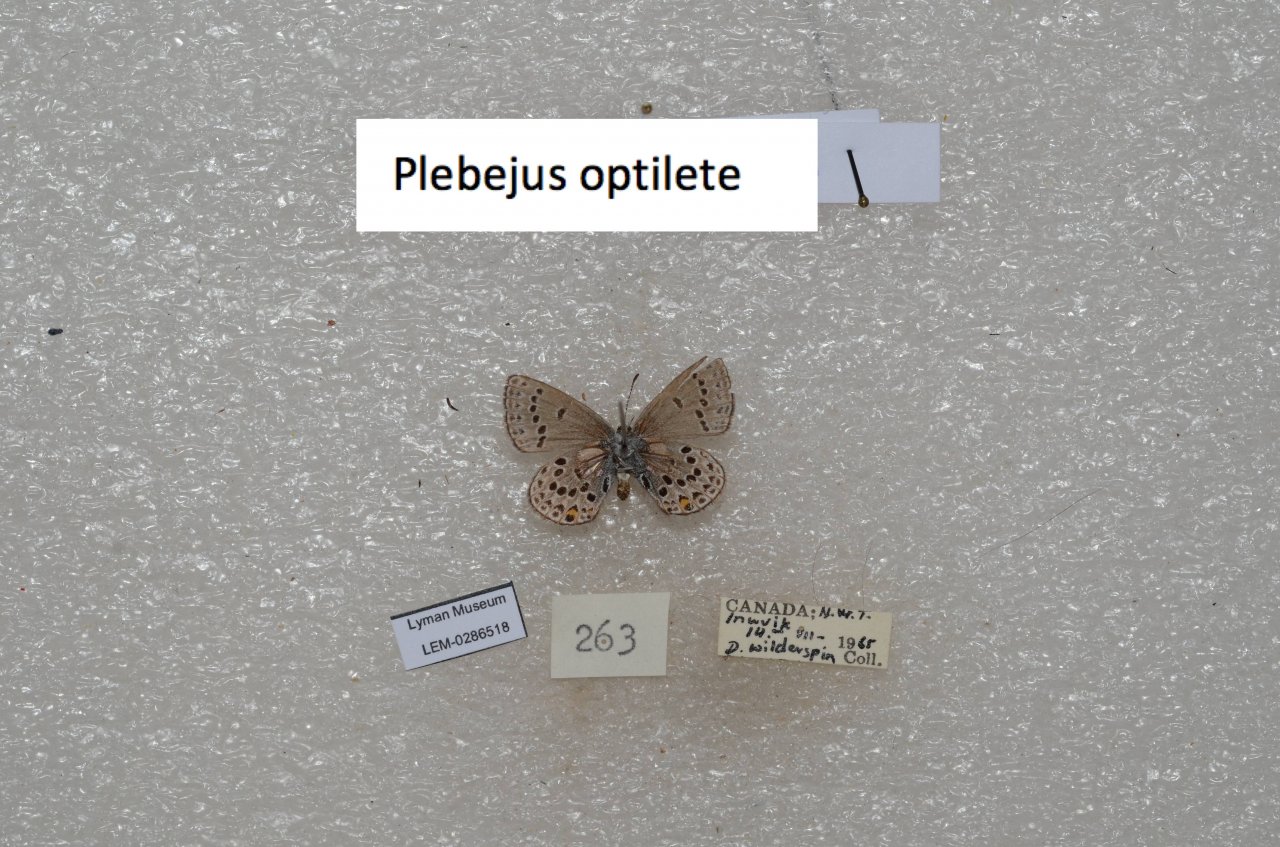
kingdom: Animalia
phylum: Arthropoda
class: Insecta
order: Lepidoptera
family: Lycaenidae
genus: Vacciniina
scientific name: Vacciniina optilete
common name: Cranberry Blue
